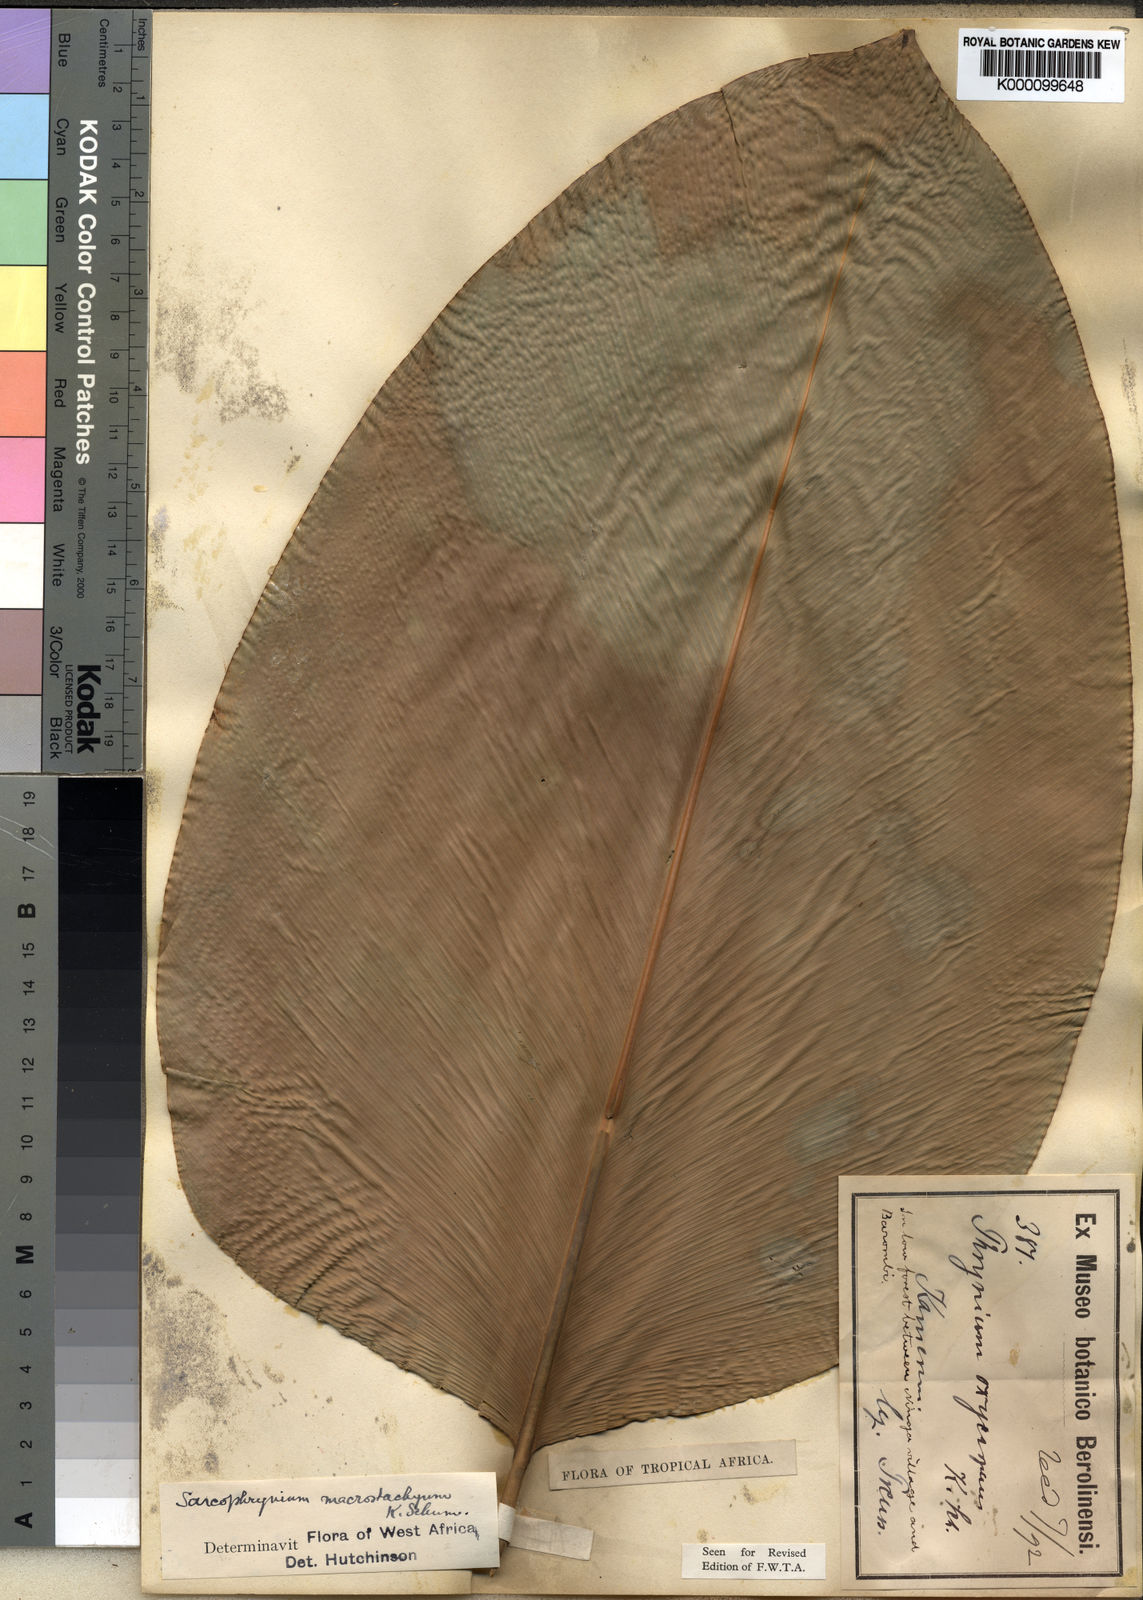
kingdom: Plantae
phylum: Tracheophyta
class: Liliopsida
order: Zingiberales
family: Marantaceae
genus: Megaphrynium
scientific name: Megaphrynium macrostachyum
